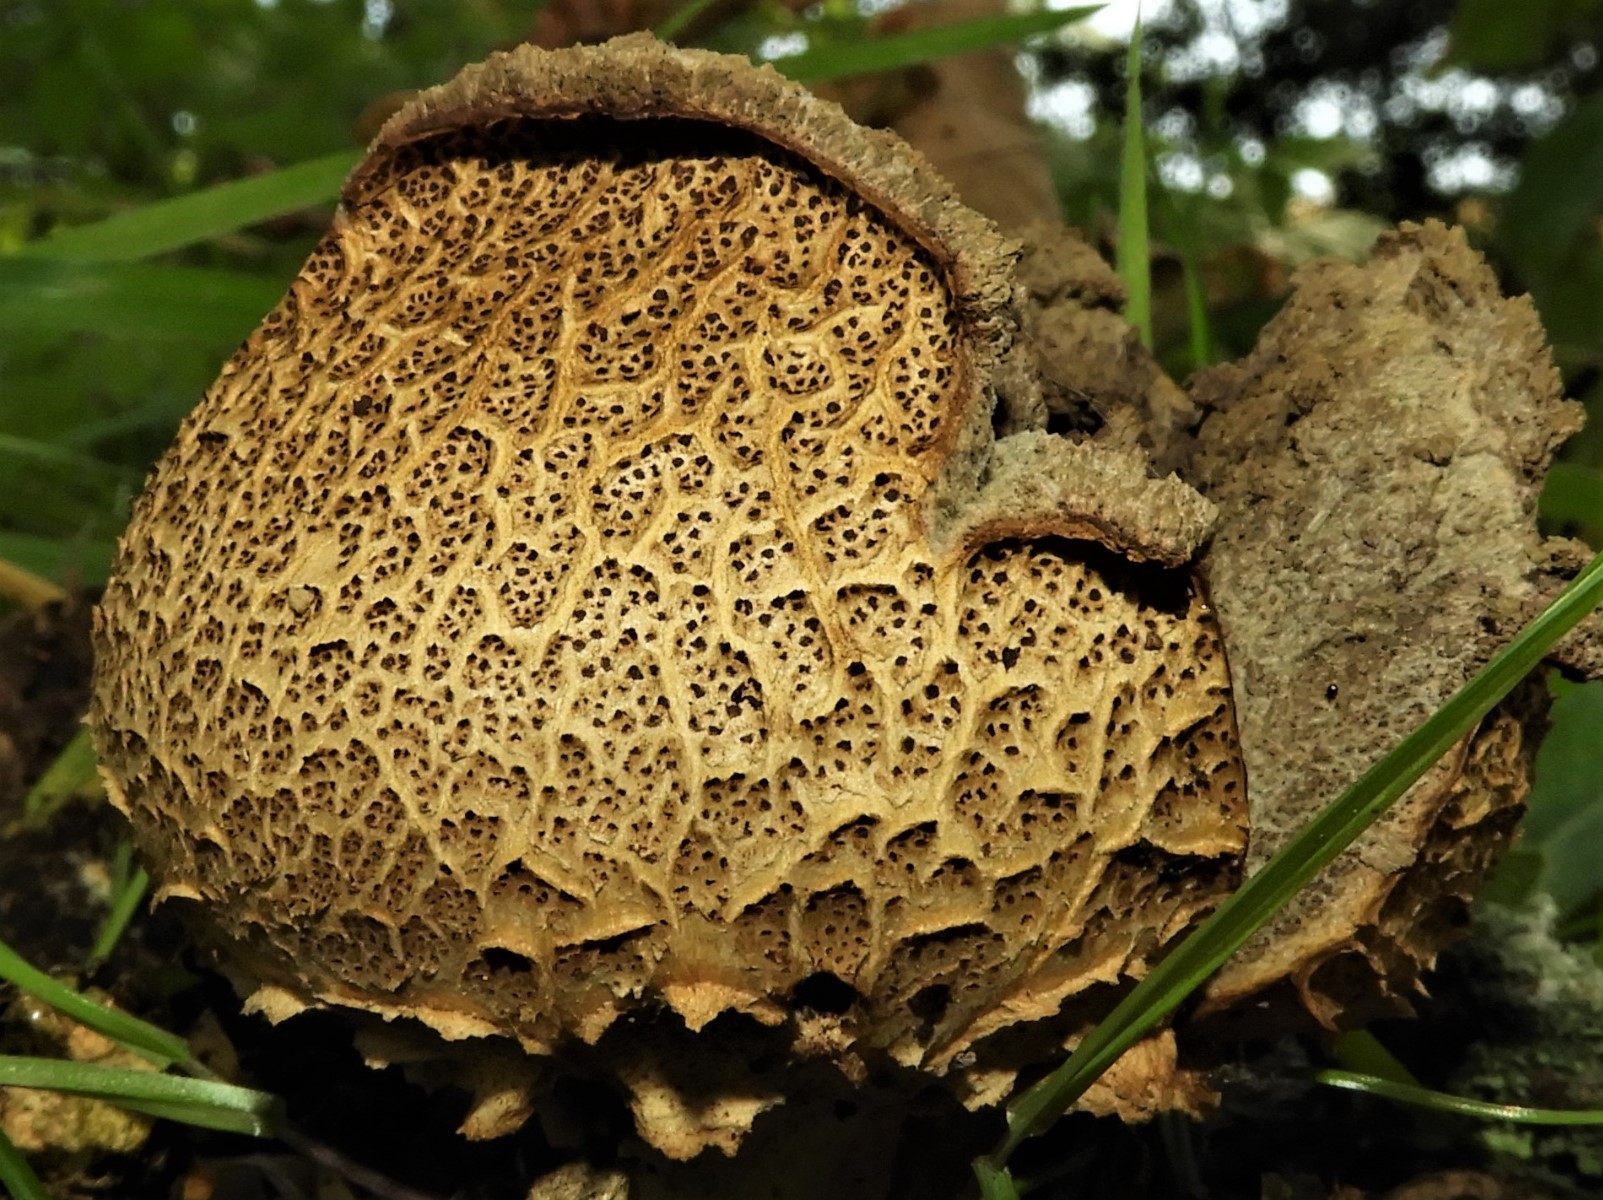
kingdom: Fungi
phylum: Basidiomycota
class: Agaricomycetes
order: Boletales
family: Sclerodermataceae
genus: Scleroderma
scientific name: Scleroderma areolatum
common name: plettet bruskbold
